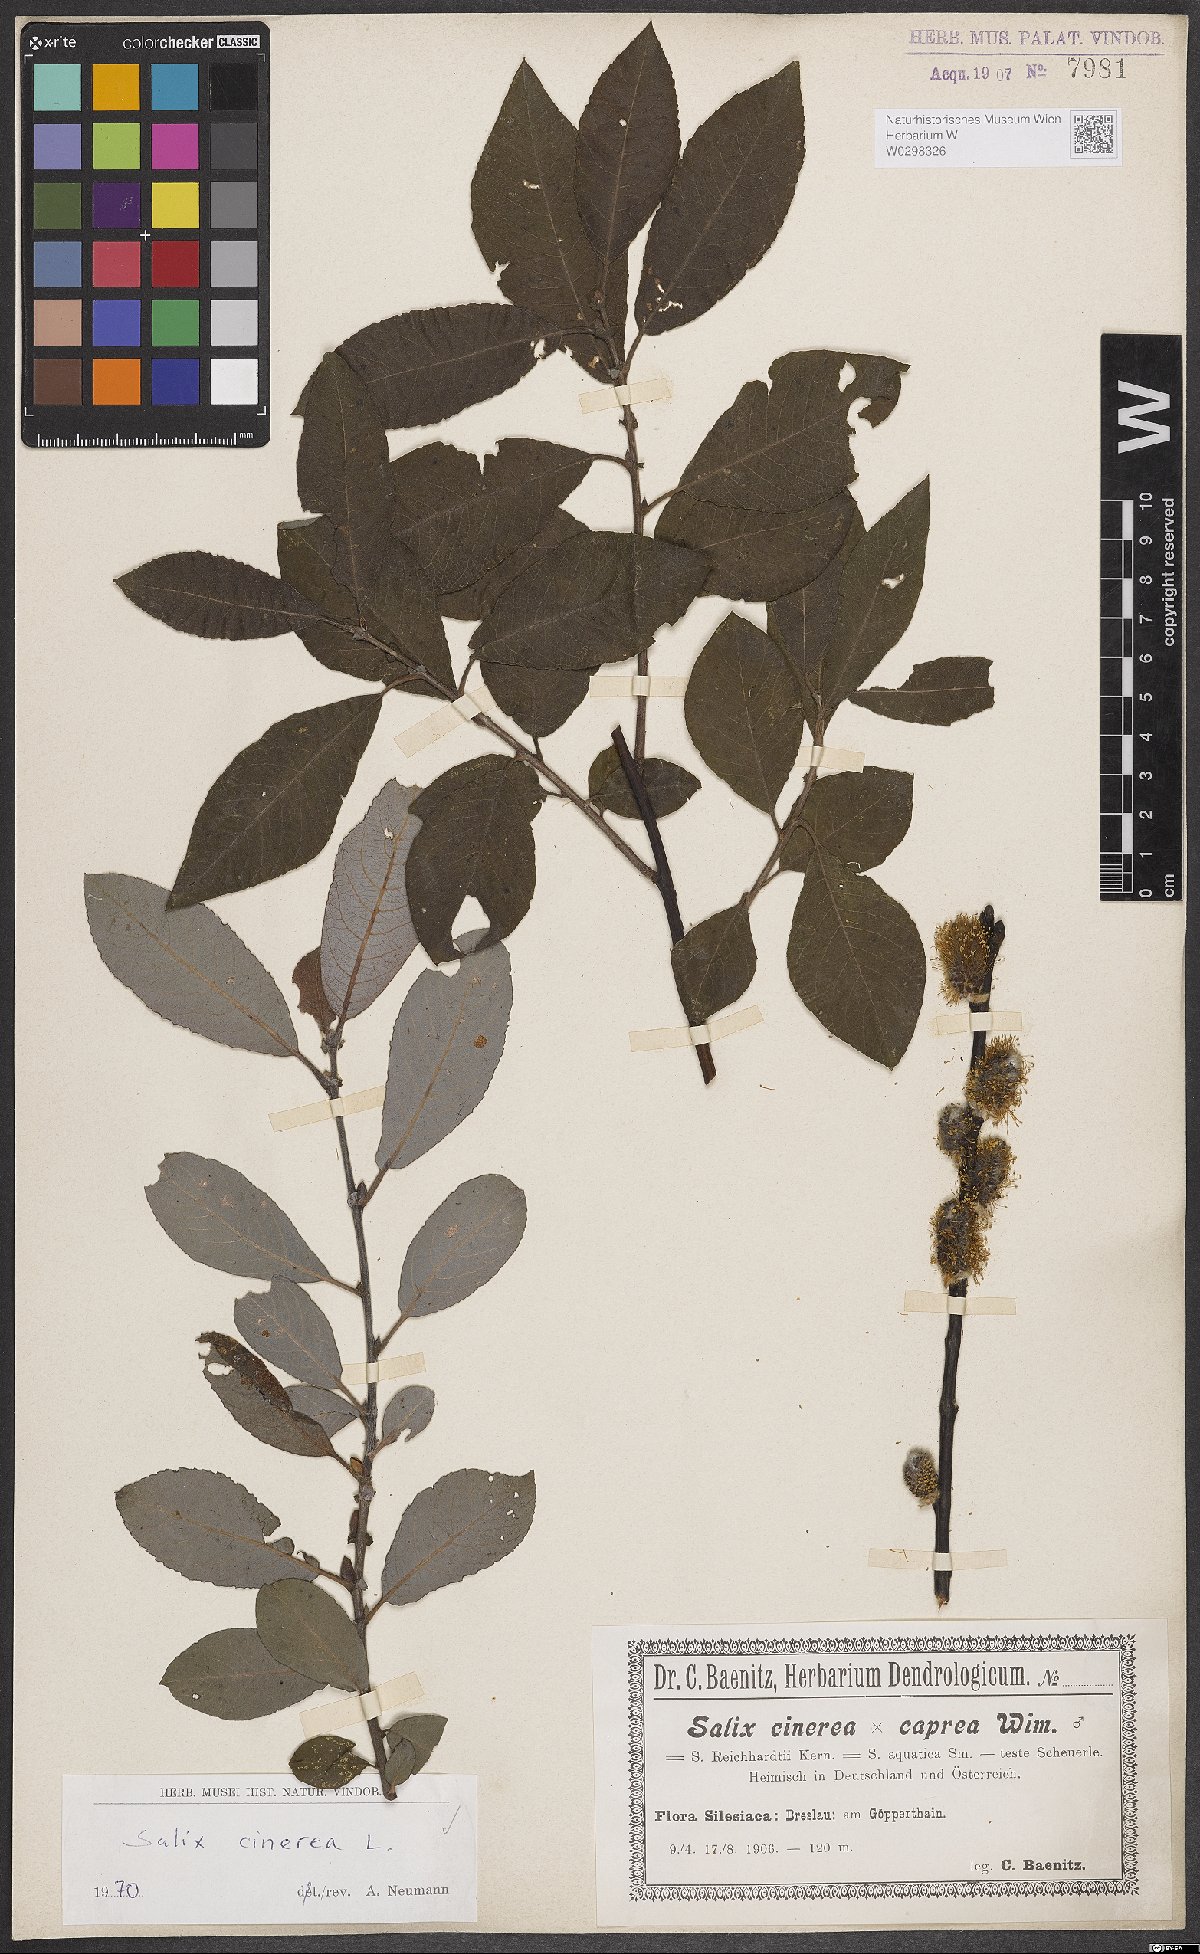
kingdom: Plantae
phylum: Tracheophyta
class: Magnoliopsida
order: Malpighiales
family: Salicaceae
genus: Salix
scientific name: Salix cinerea
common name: Common sallow
